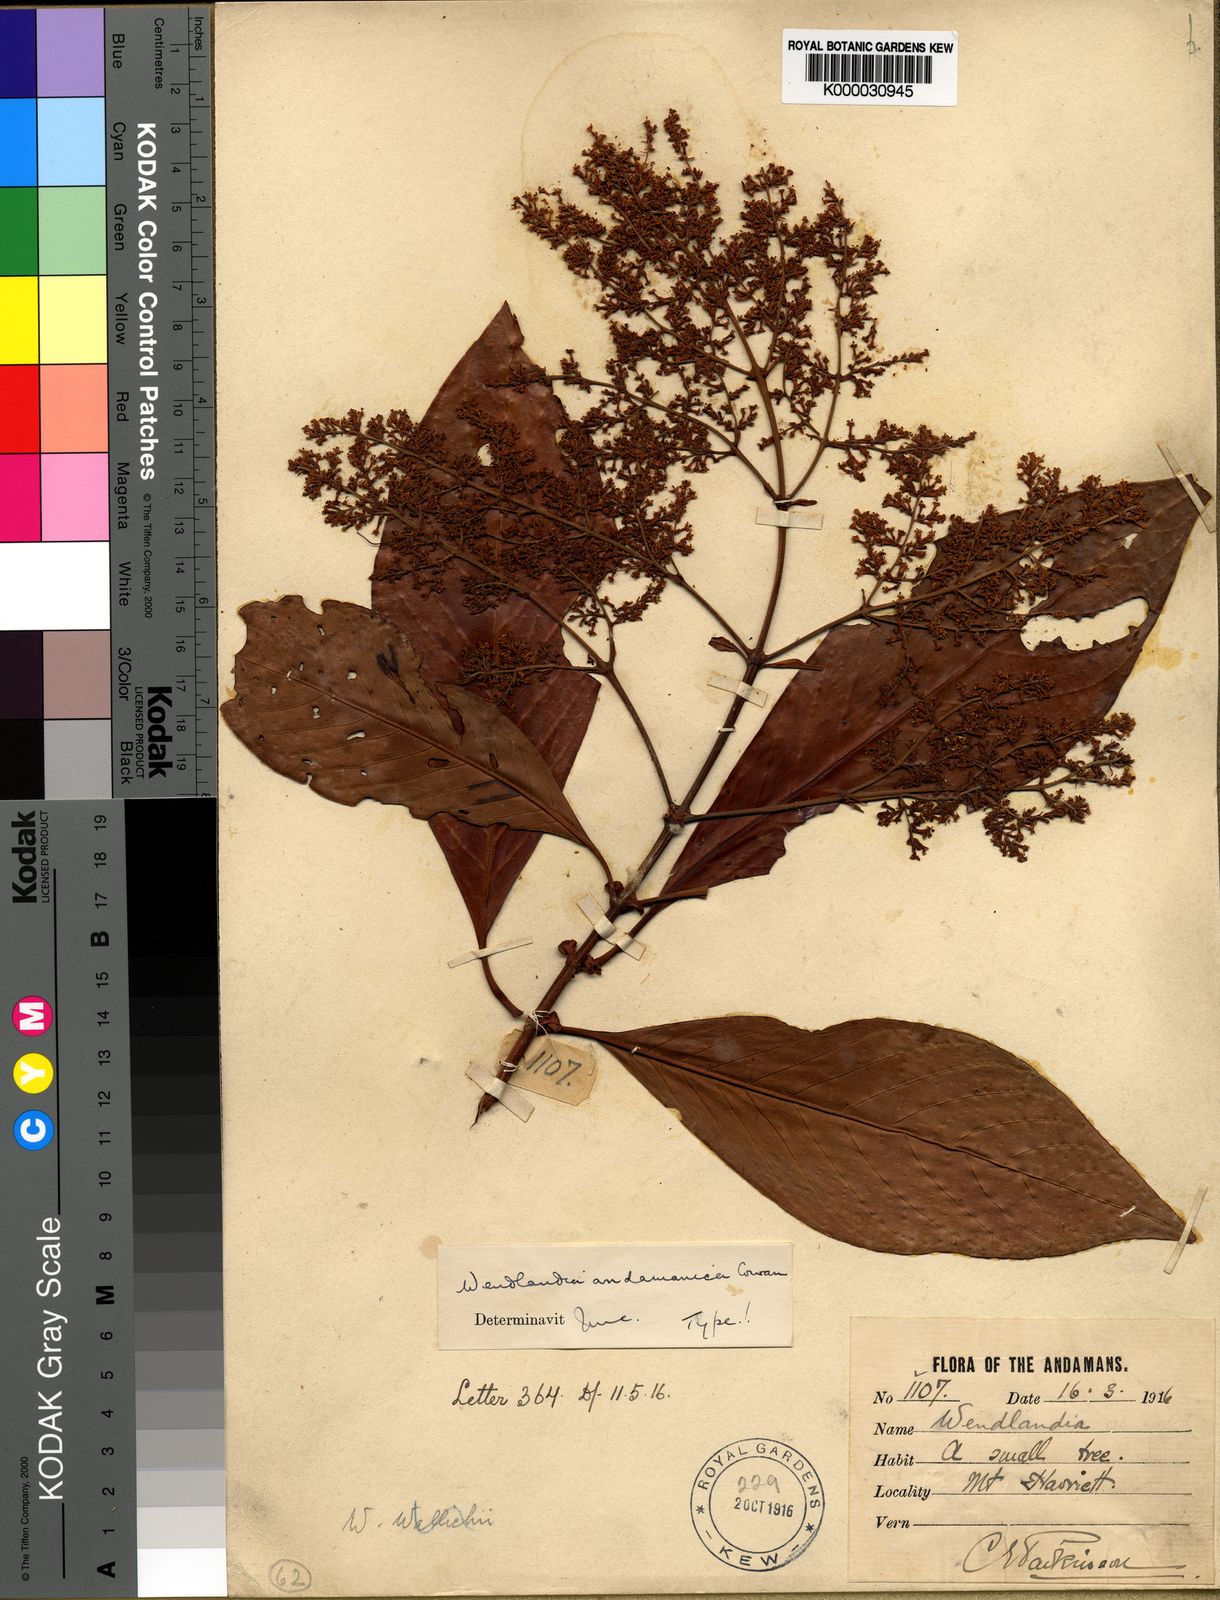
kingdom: Plantae
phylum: Tracheophyta
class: Magnoliopsida
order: Gentianales
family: Rubiaceae
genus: Wendlandia
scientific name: Wendlandia andamanica
